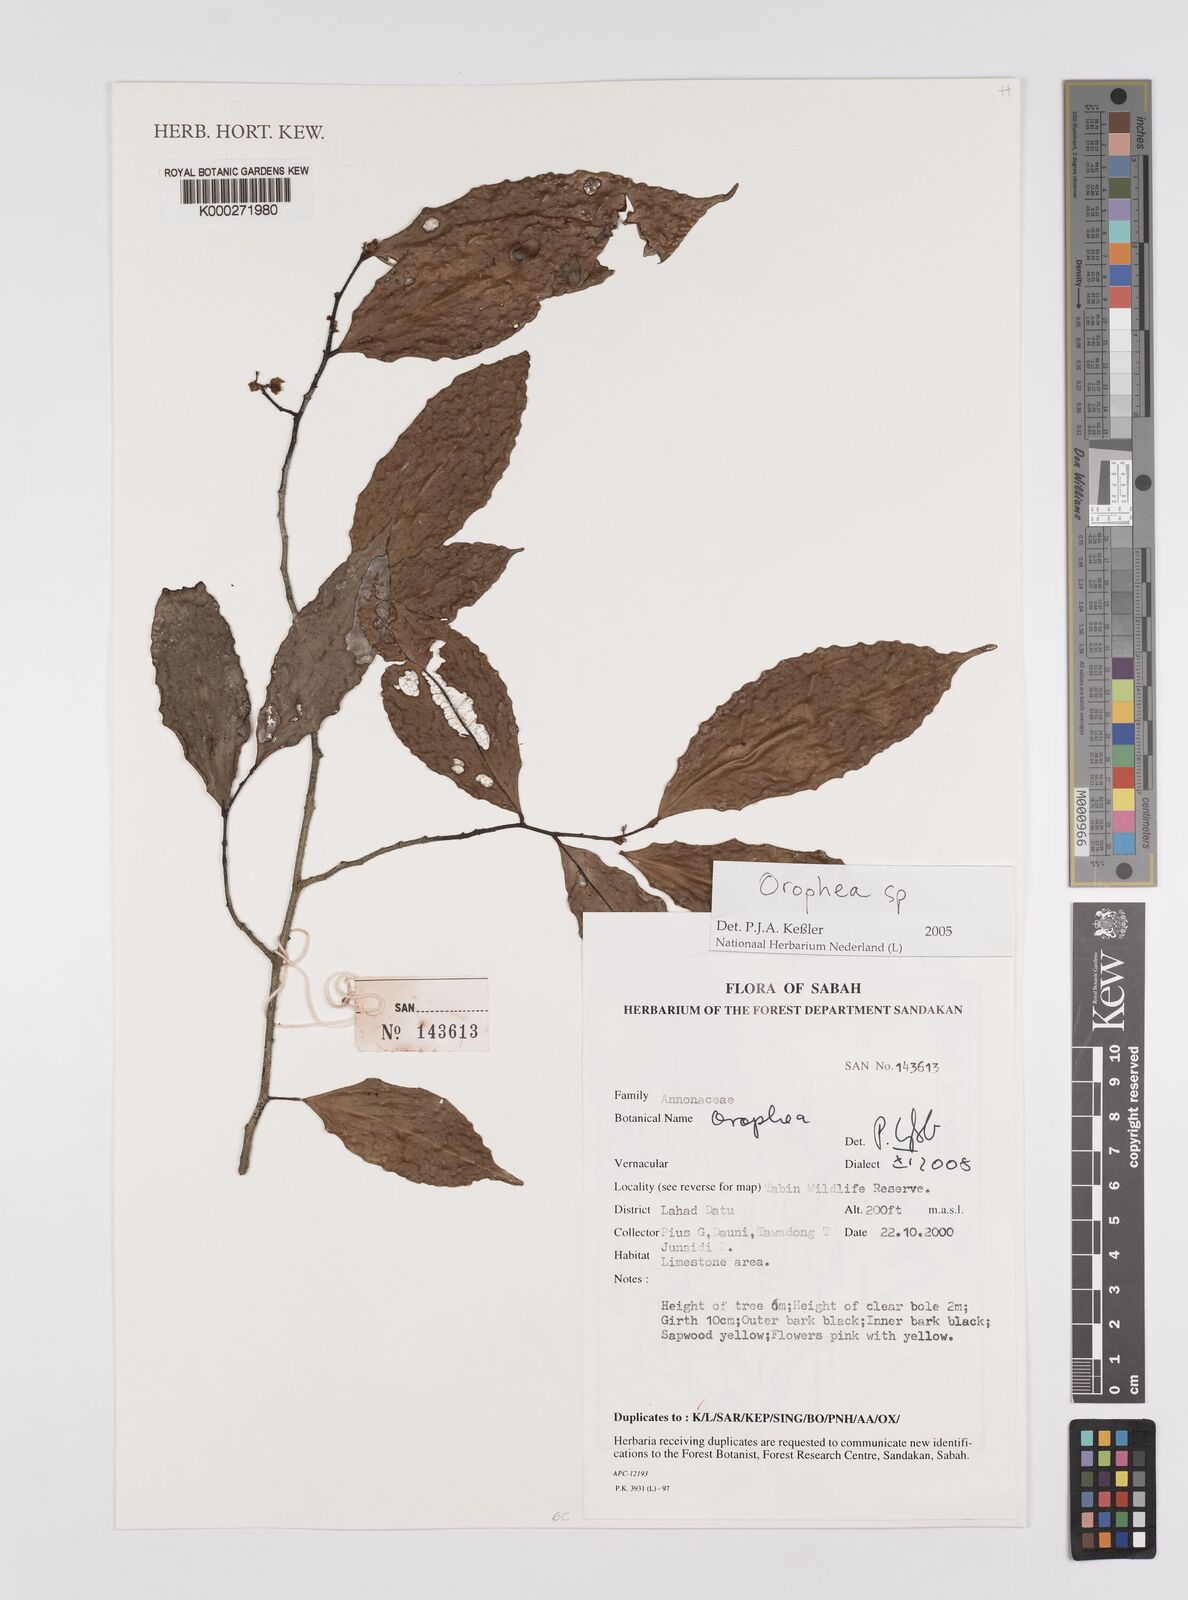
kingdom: Plantae
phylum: Tracheophyta
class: Magnoliopsida
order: Magnoliales
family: Annonaceae
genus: Orophea
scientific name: Orophea
